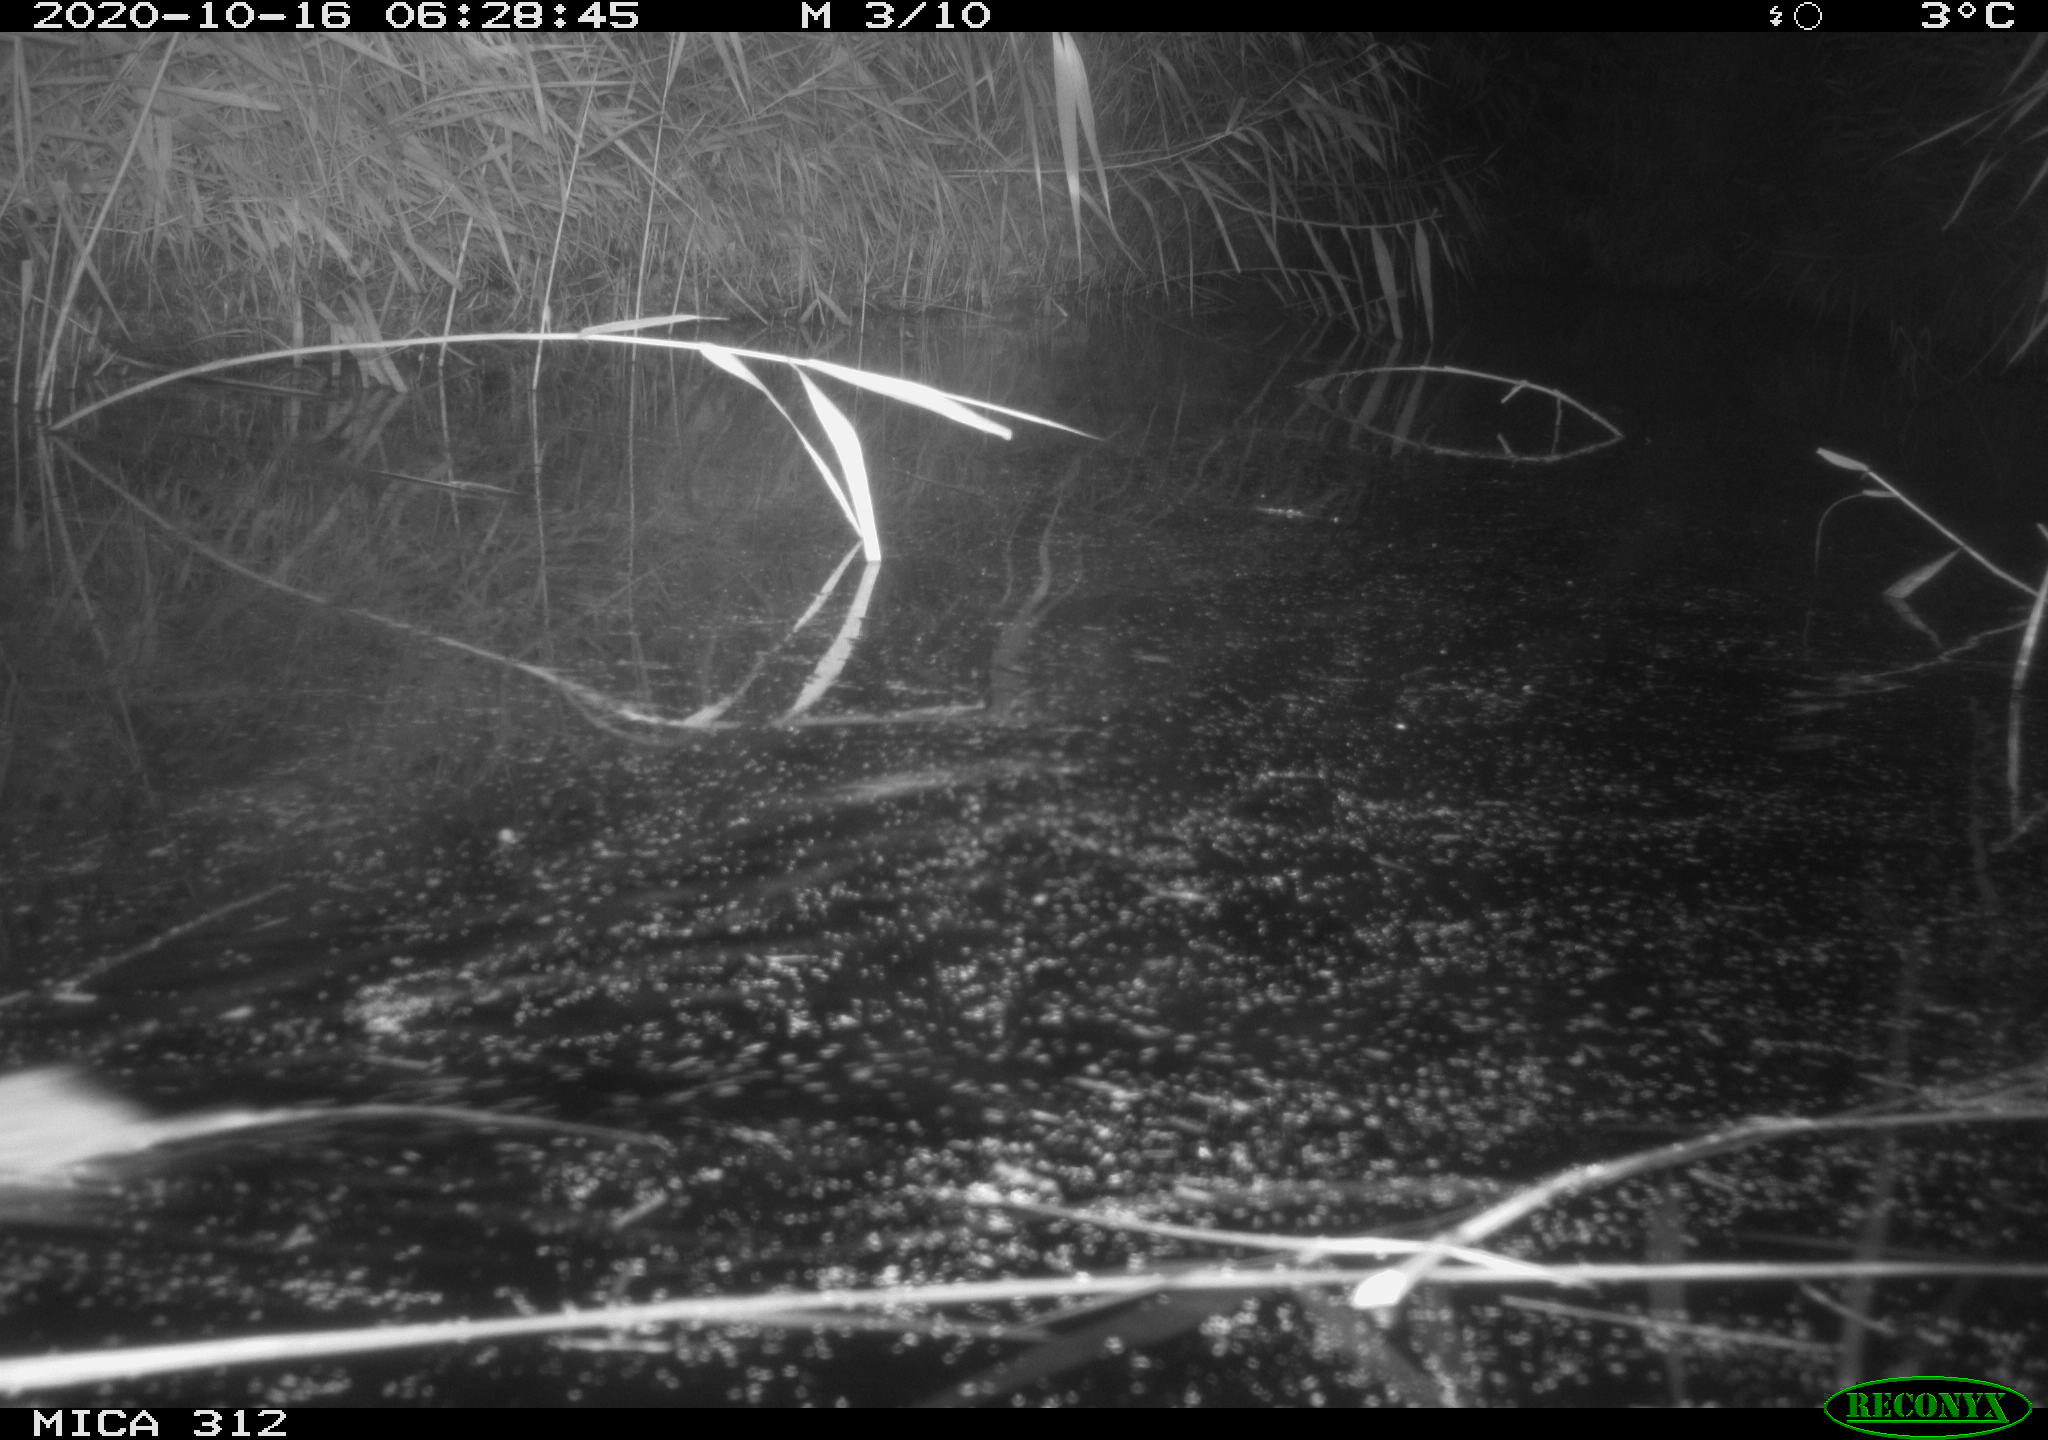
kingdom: Animalia
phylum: Chordata
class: Mammalia
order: Rodentia
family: Muridae
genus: Rattus
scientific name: Rattus norvegicus
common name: Brown rat
